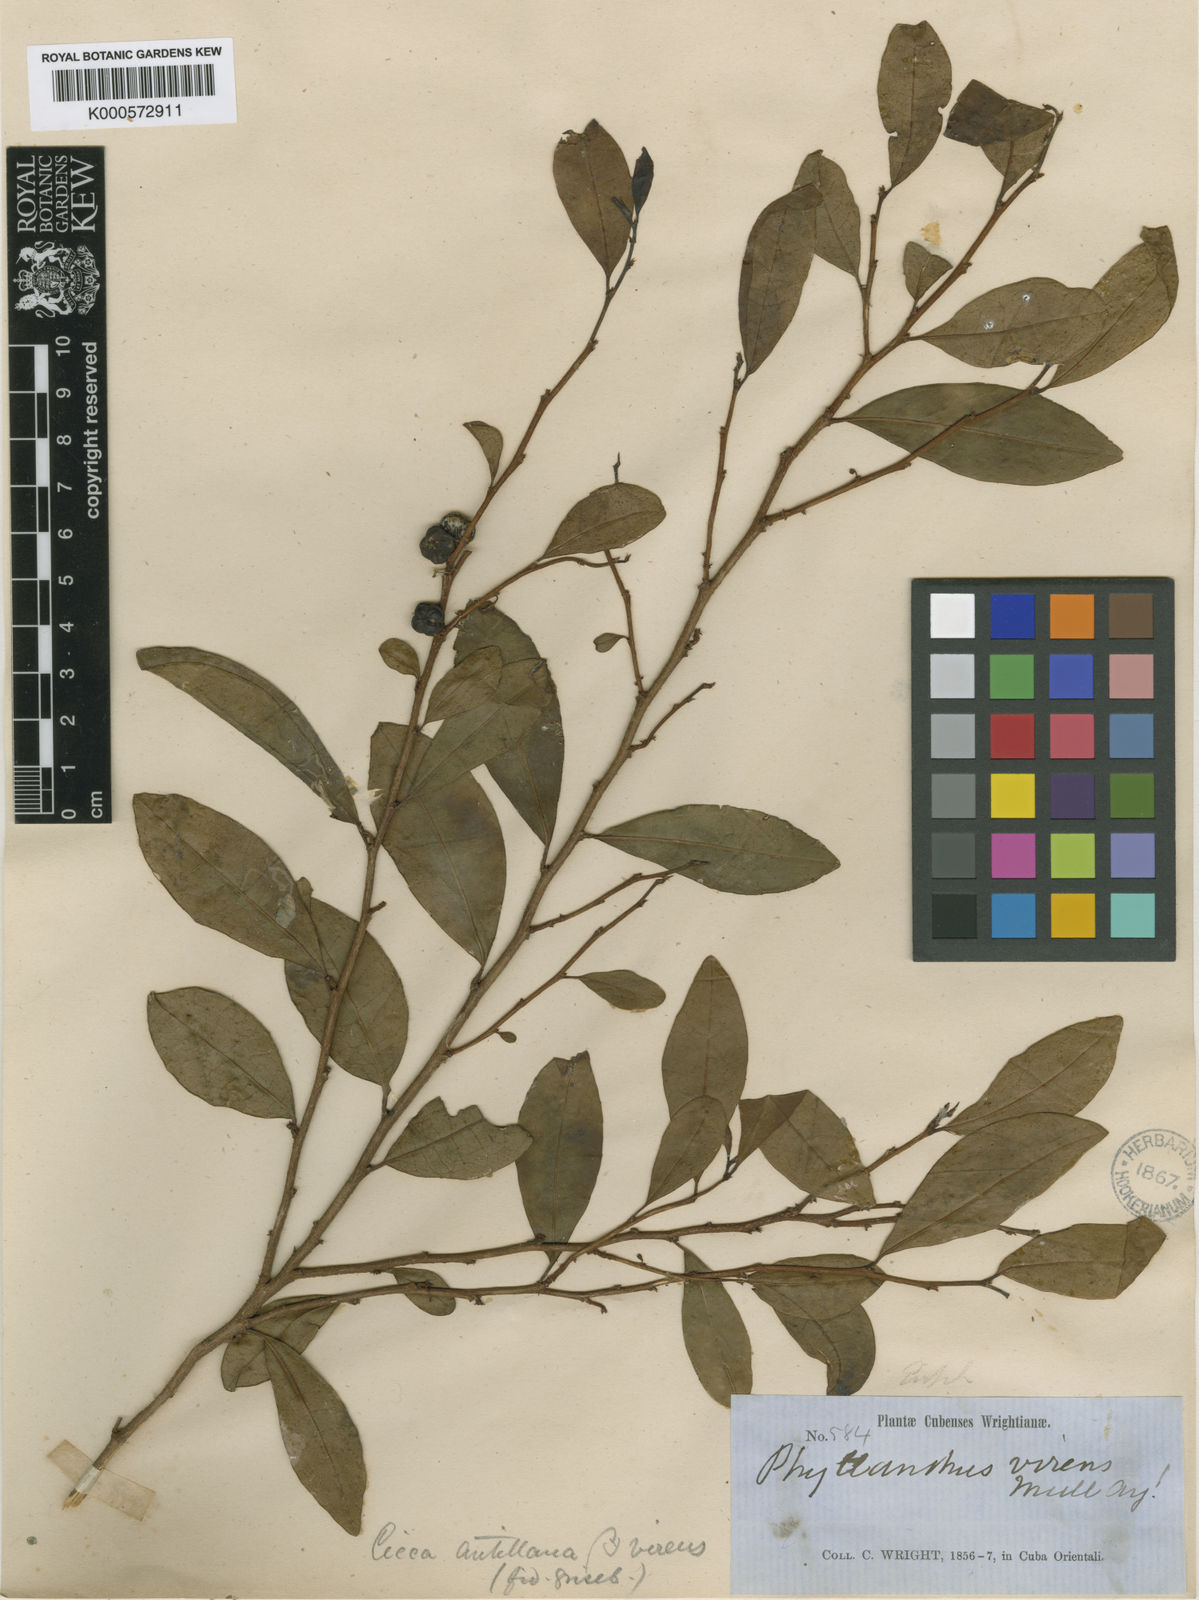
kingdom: Plantae
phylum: Tracheophyta
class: Magnoliopsida
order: Malpighiales
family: Phyllanthaceae
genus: Margaritaria
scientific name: Margaritaria tetracocca
